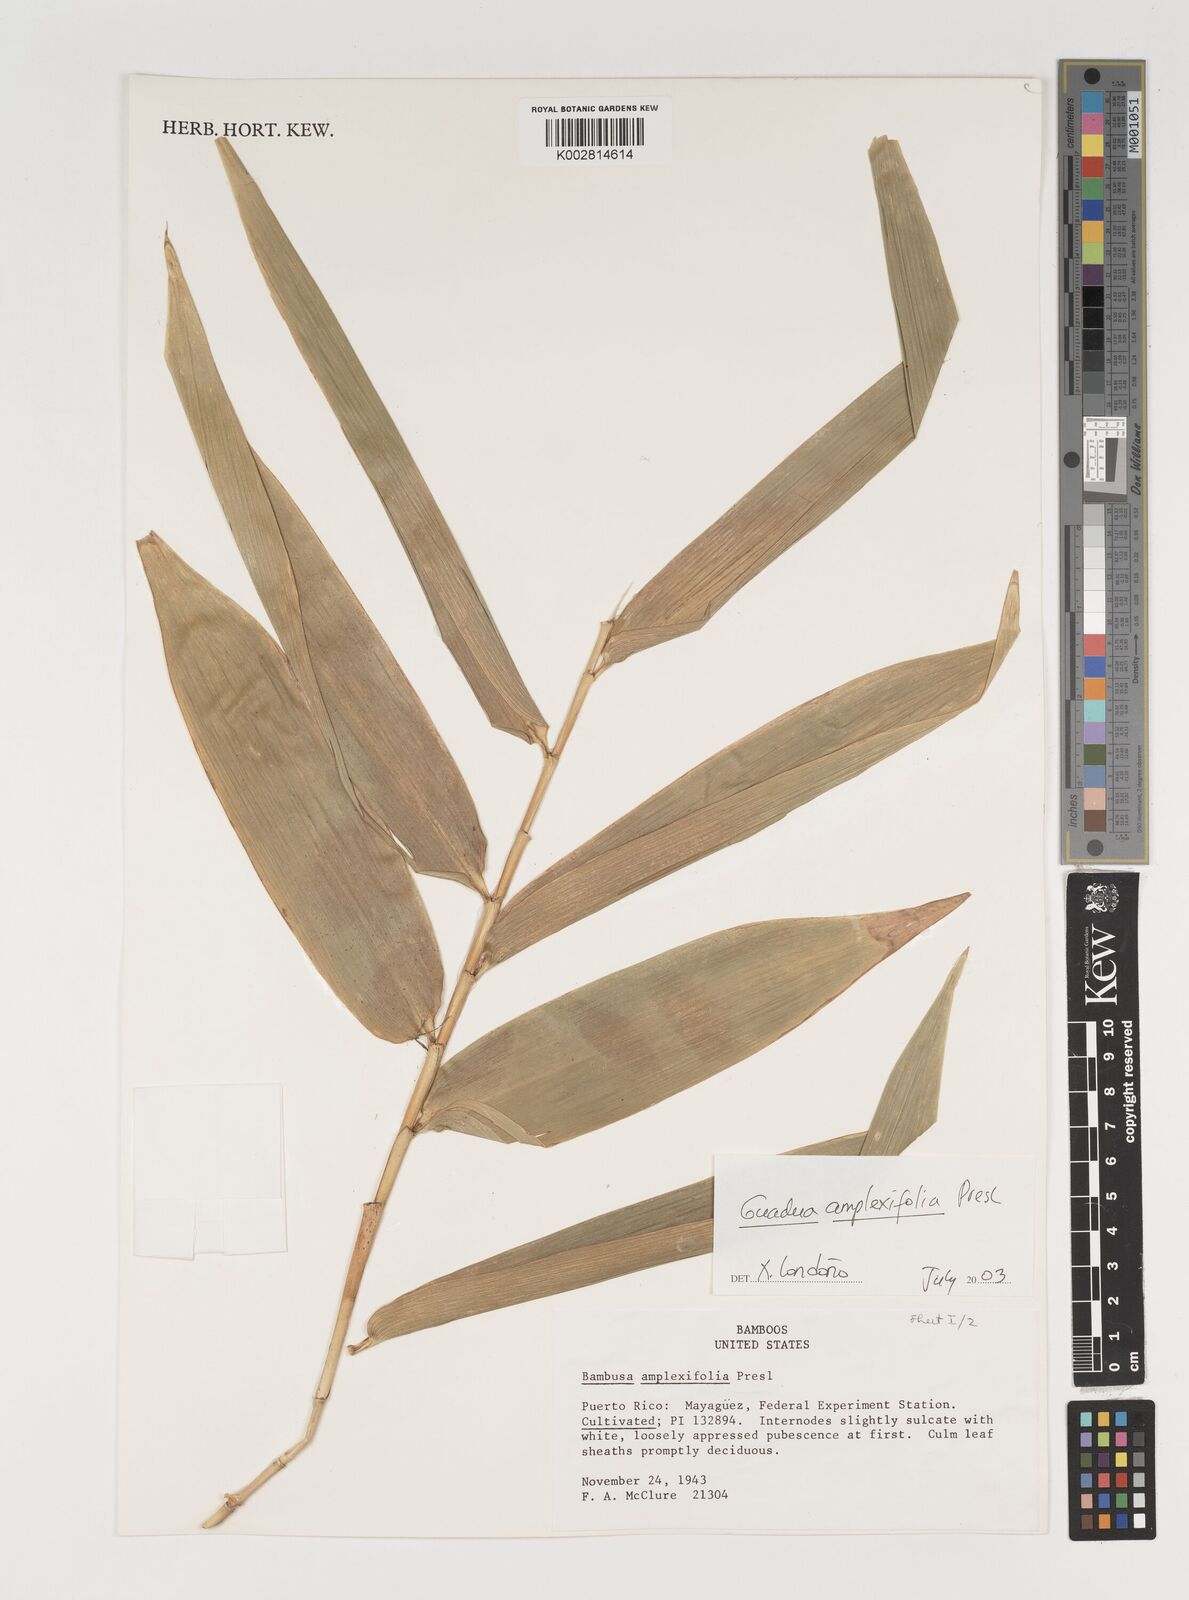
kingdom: Plantae
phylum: Tracheophyta
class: Liliopsida
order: Poales
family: Poaceae
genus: Guadua
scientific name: Guadua amplexifolia
